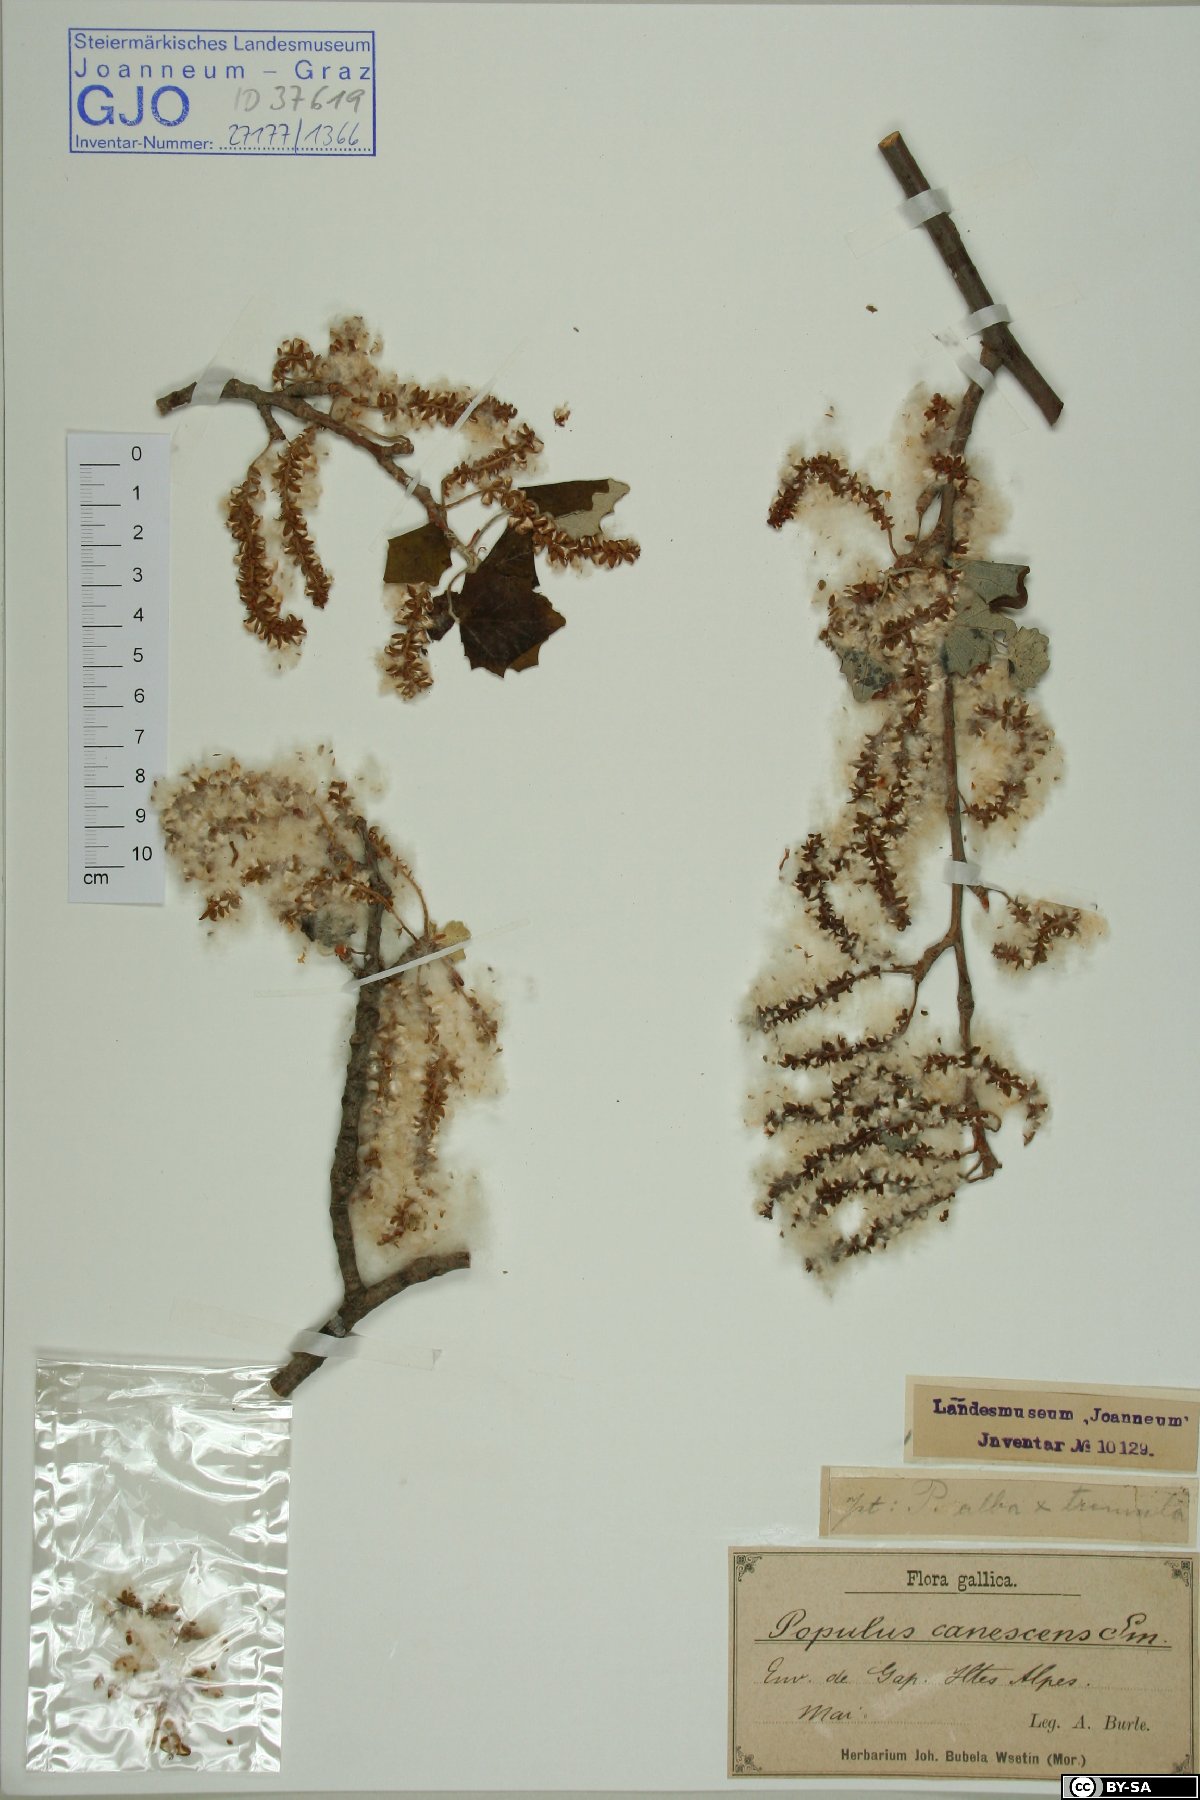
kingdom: Plantae
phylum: Tracheophyta
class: Magnoliopsida
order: Malpighiales
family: Salicaceae
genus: Populus
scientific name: Populus canescens
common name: Gray poplar
